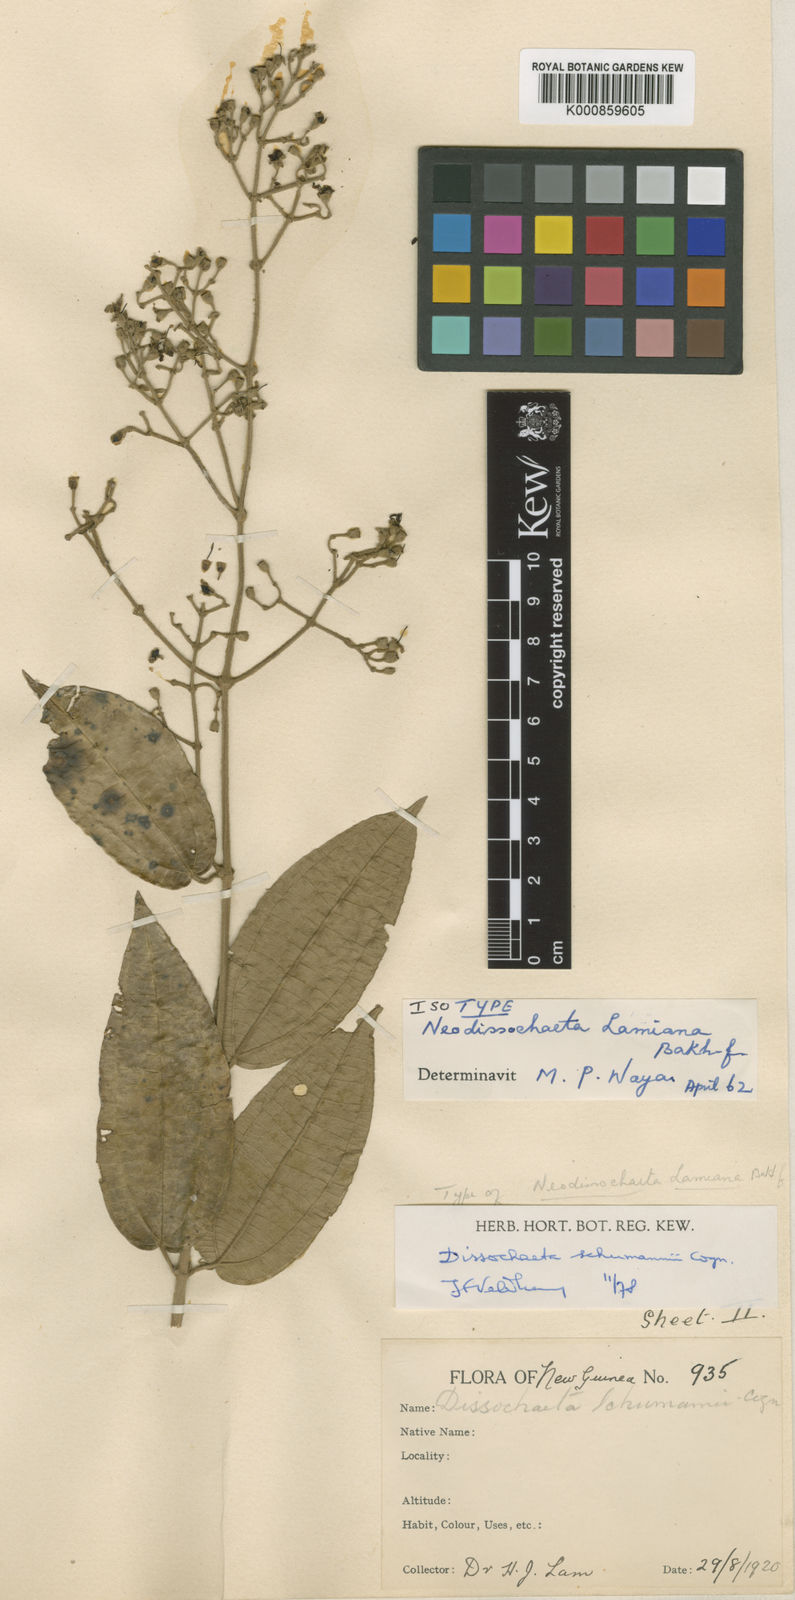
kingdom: Plantae
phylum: Tracheophyta
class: Magnoliopsida
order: Myrtales
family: Melastomataceae
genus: Dissochaeta
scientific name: Dissochaeta schumannii
